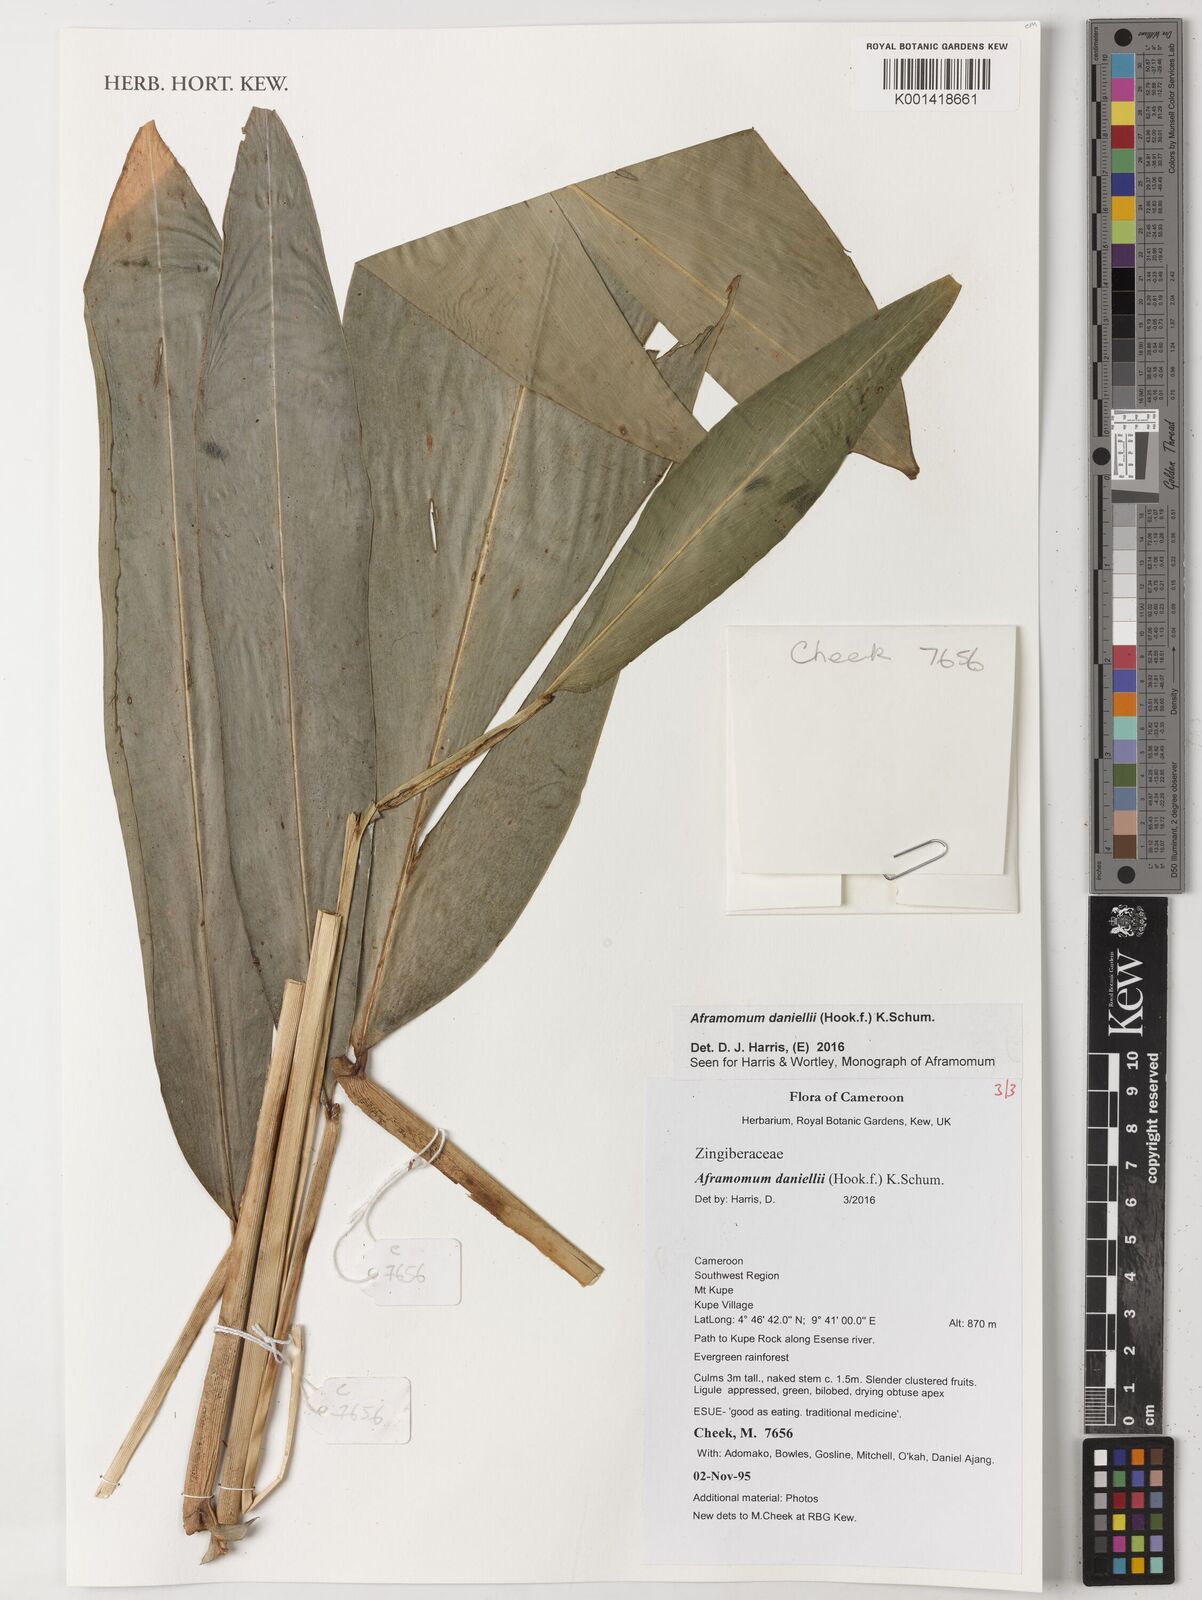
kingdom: Plantae
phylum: Tracheophyta
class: Liliopsida
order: Zingiberales
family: Zingiberaceae
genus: Aframomum
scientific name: Aframomum daniellii
